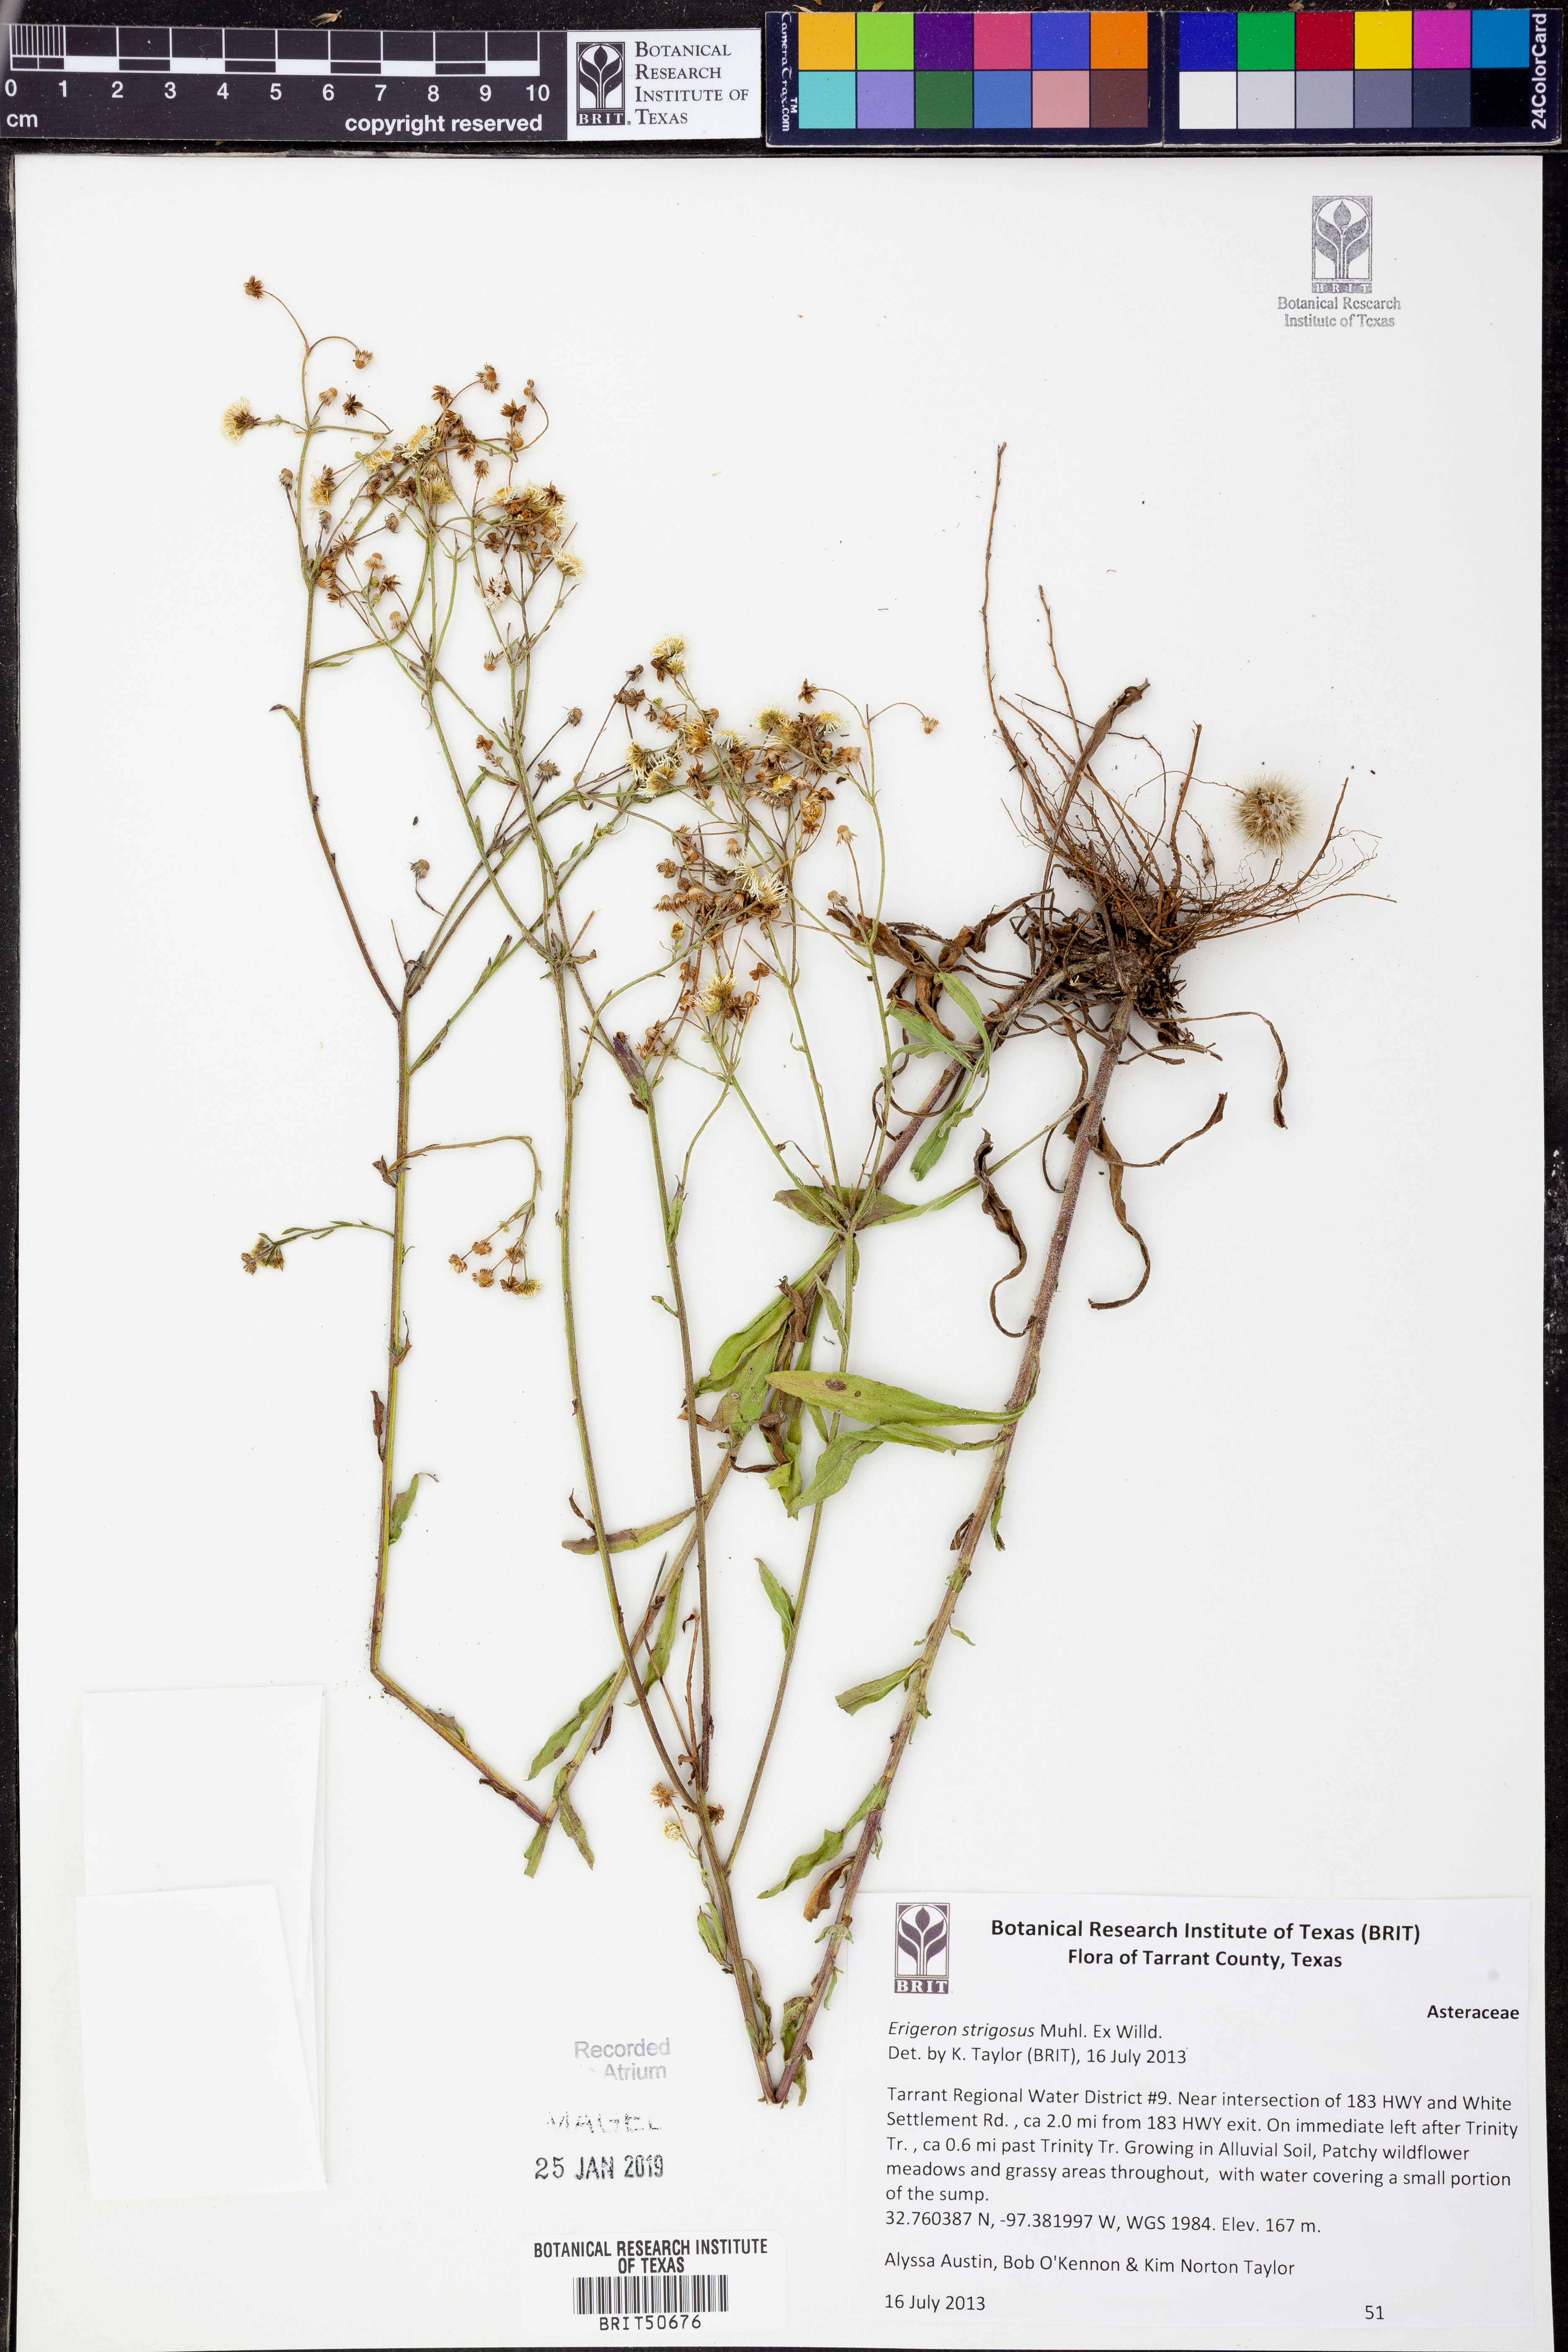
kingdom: Plantae
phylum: Tracheophyta
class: Magnoliopsida
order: Asterales
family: Asteraceae
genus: Erigeron
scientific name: Erigeron strigosus
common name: Common eastern fleabane
